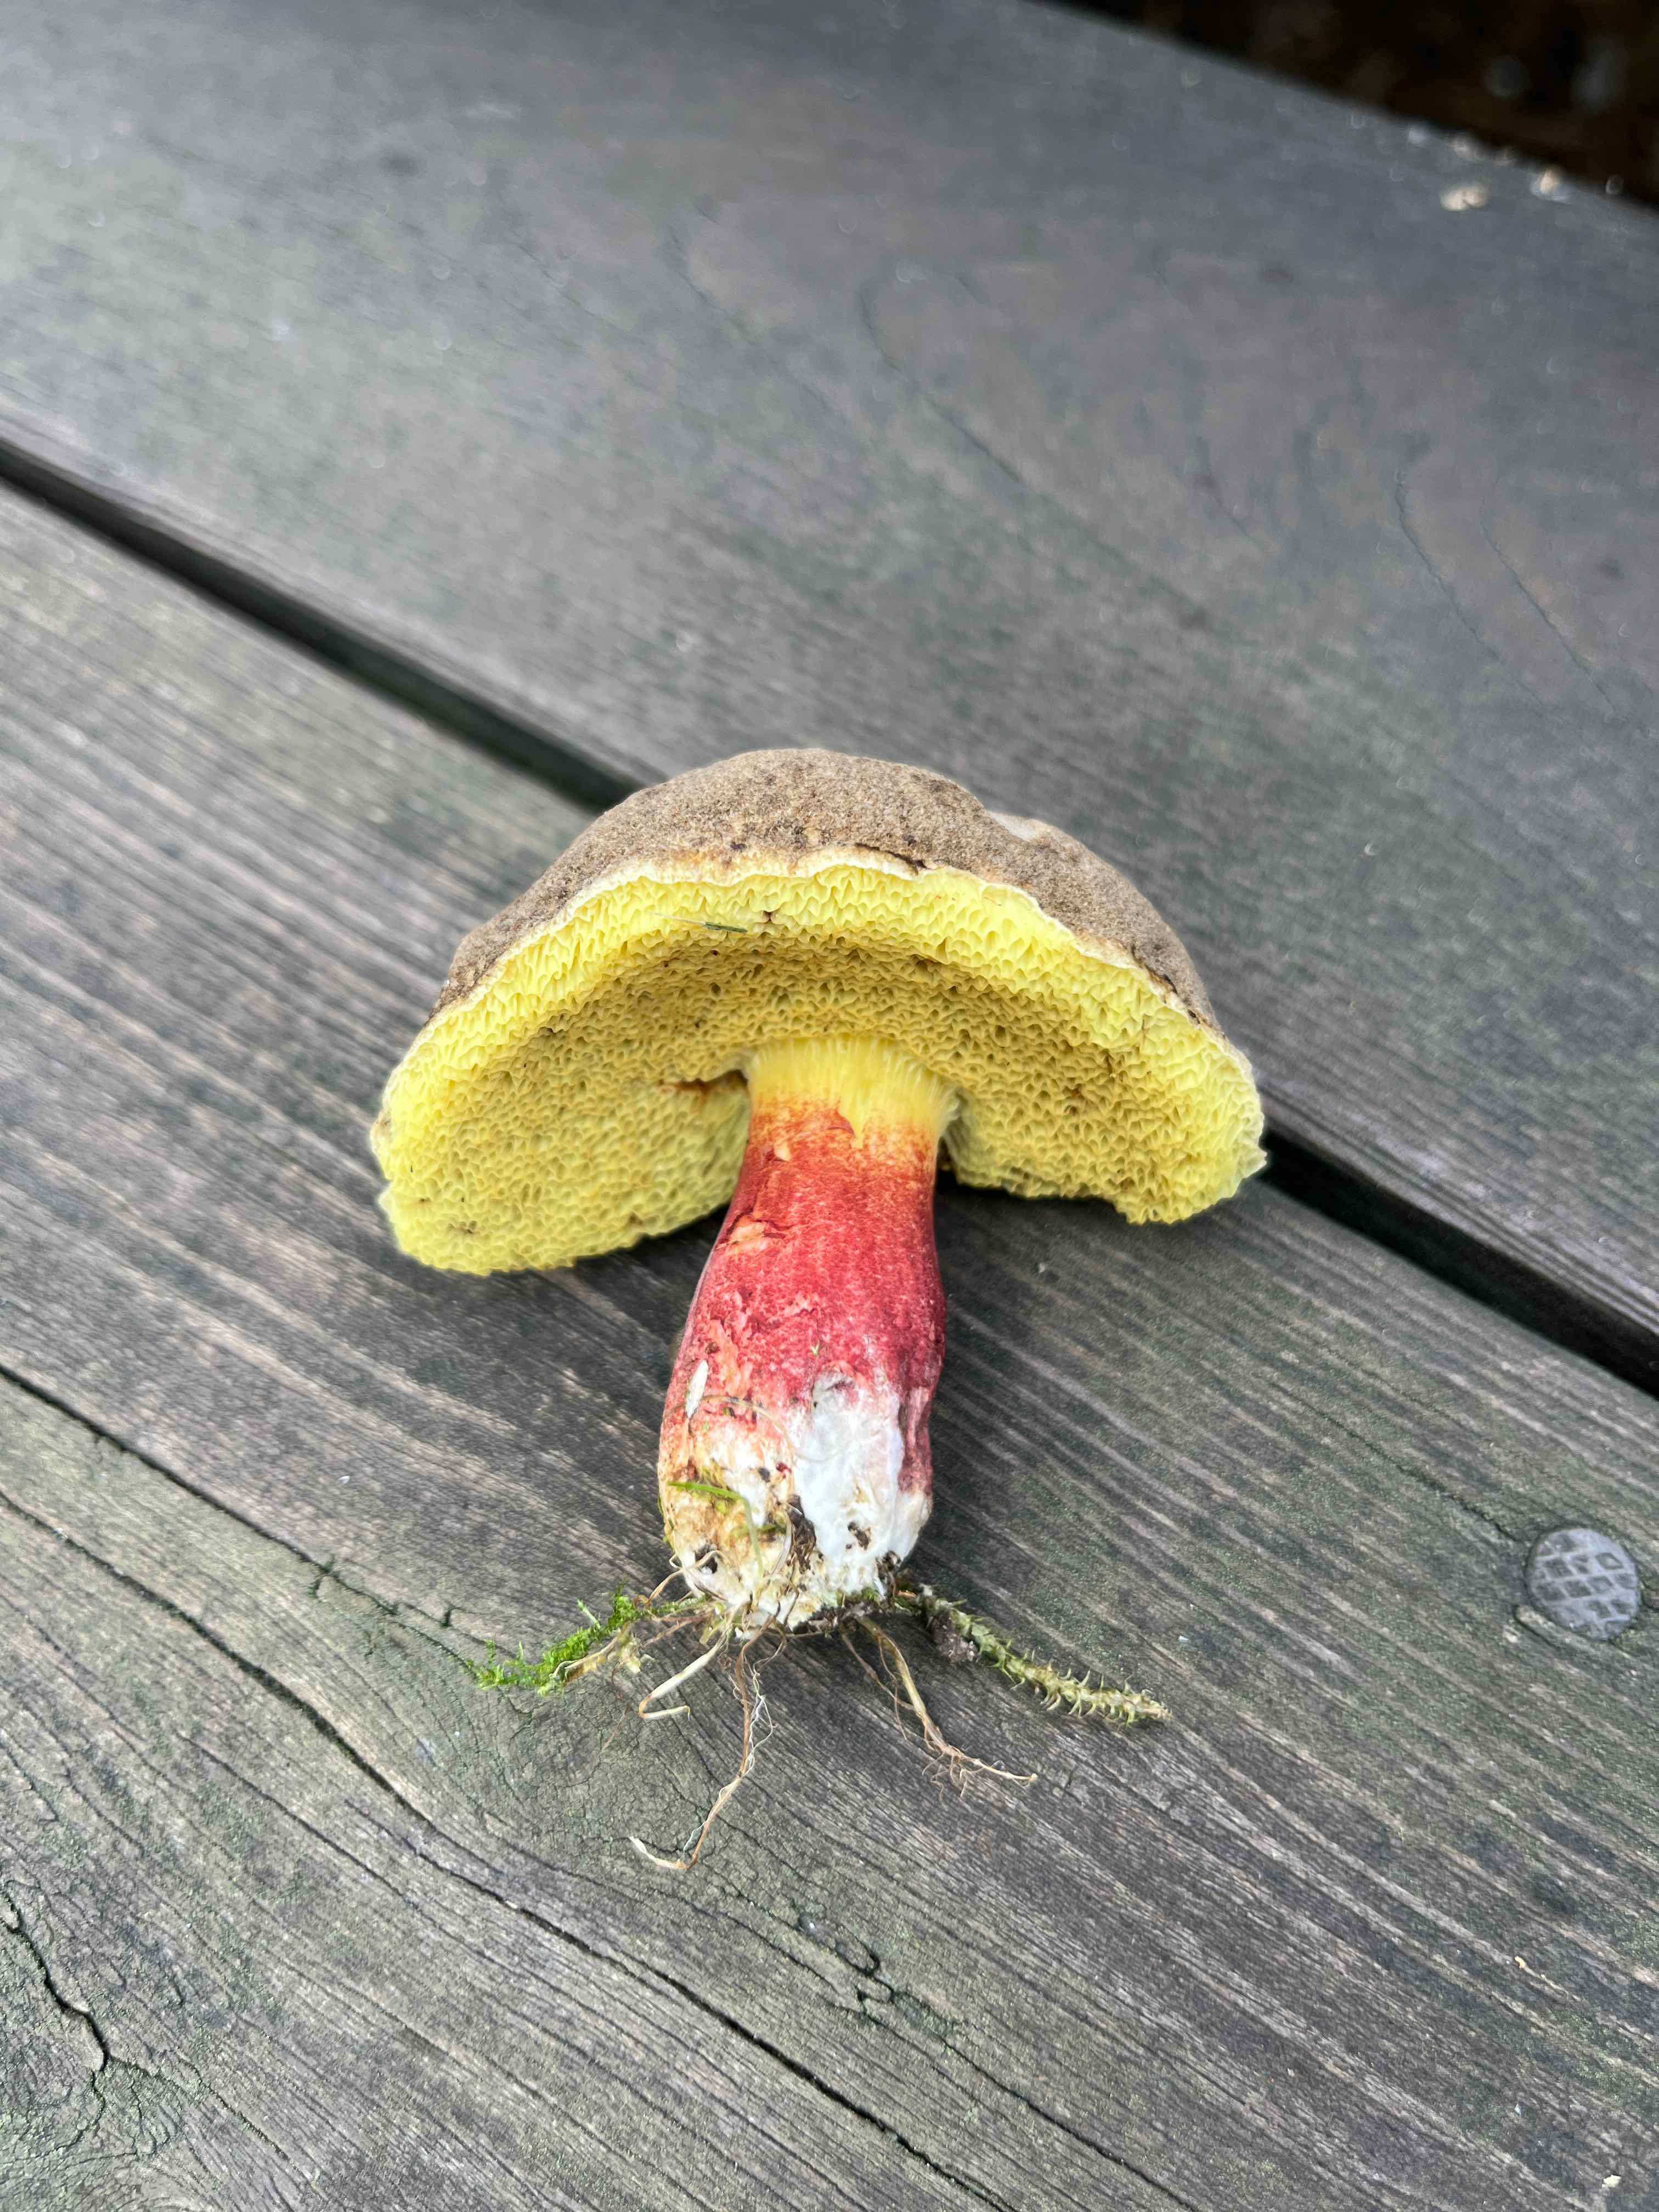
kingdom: Fungi
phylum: Basidiomycota
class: Agaricomycetes
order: Boletales
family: Boletaceae
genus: Xerocomellus
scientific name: Xerocomellus
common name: dværgrørhat
